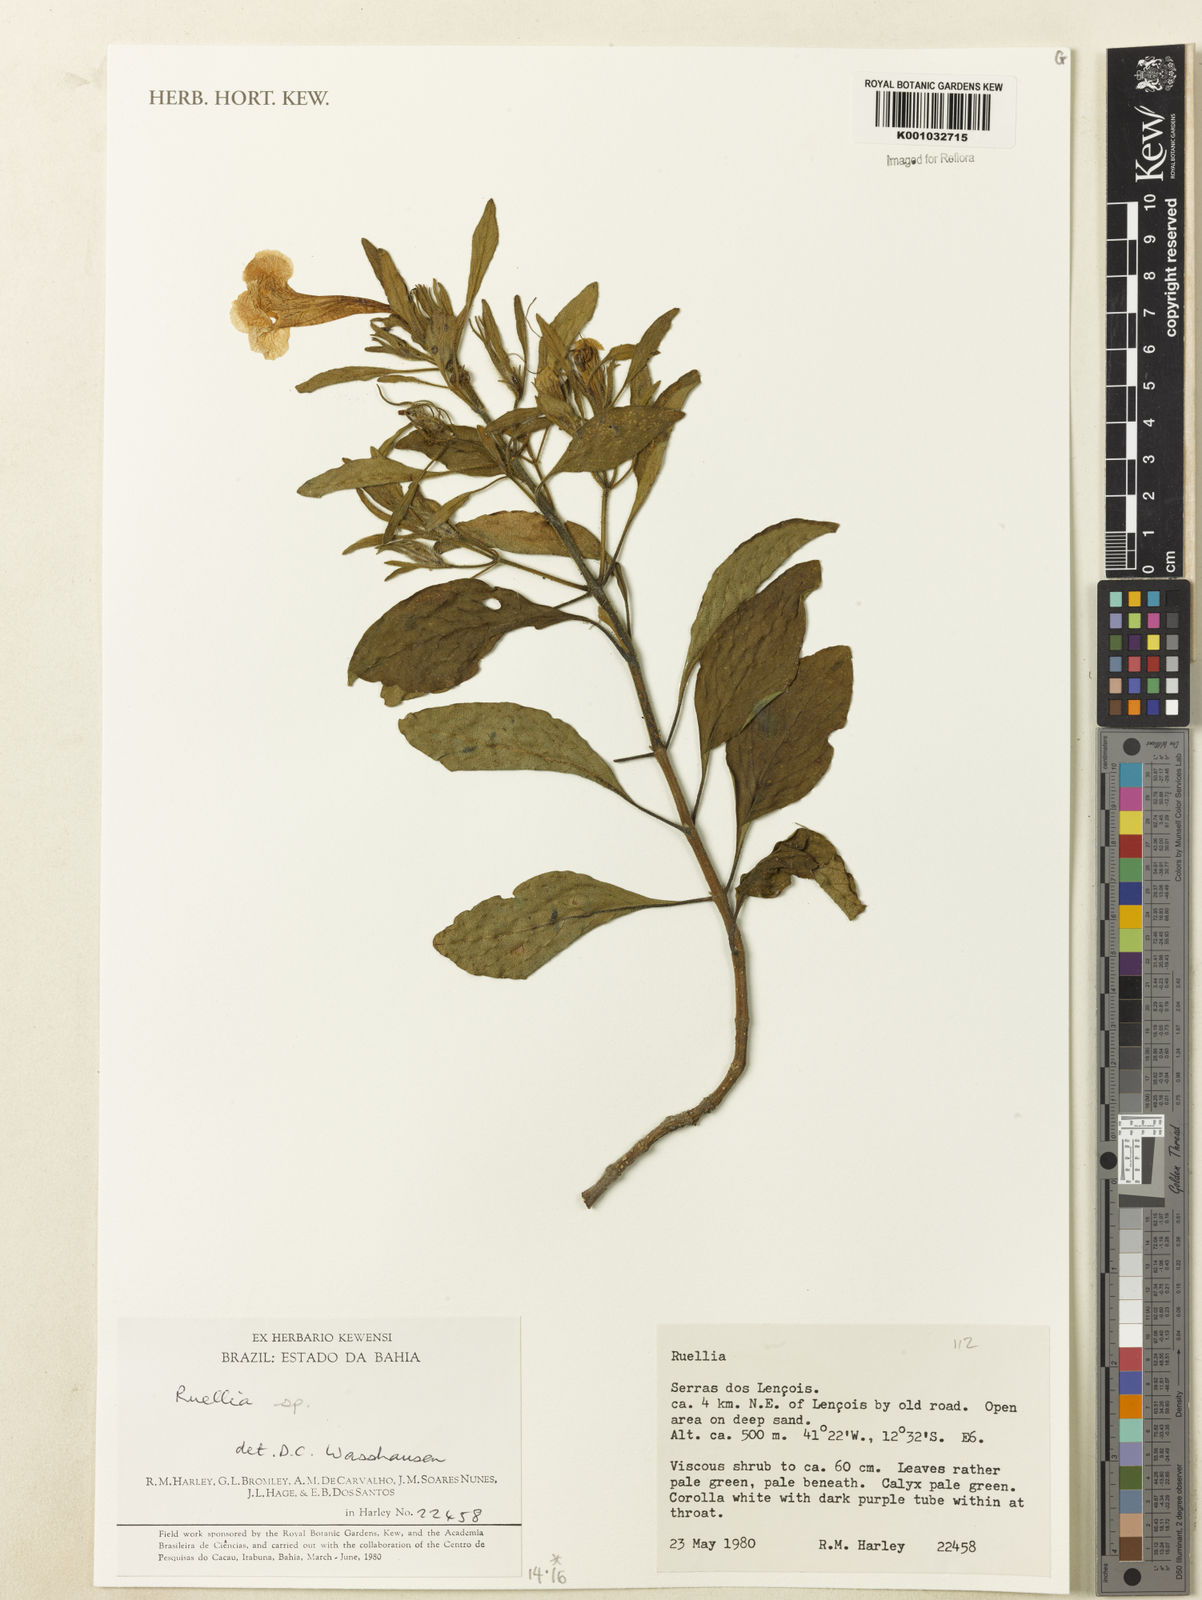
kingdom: Plantae
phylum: Tracheophyta
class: Magnoliopsida
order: Lamiales
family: Acanthaceae
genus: Ruellia
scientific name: Ruellia
